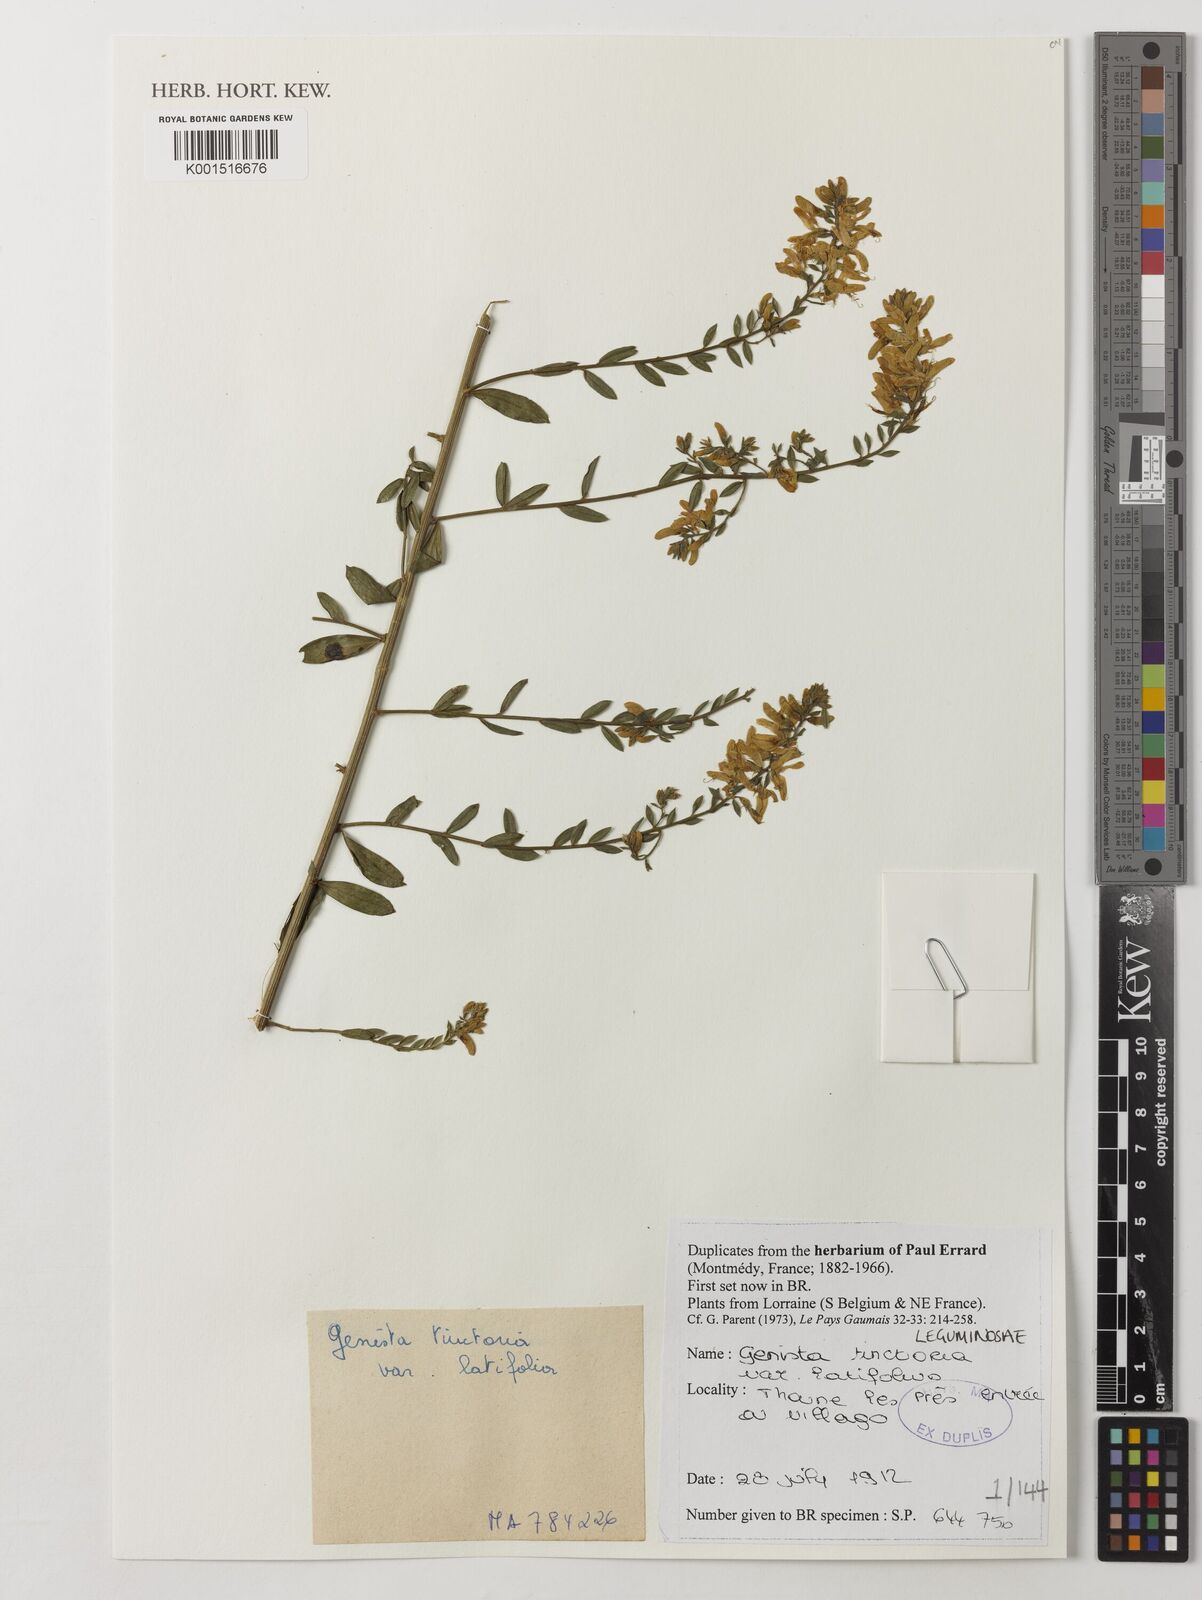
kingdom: Plantae
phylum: Tracheophyta
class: Magnoliopsida
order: Fabales
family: Fabaceae
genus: Genista
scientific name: Genista tinctoria
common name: Dyer's greenweed
